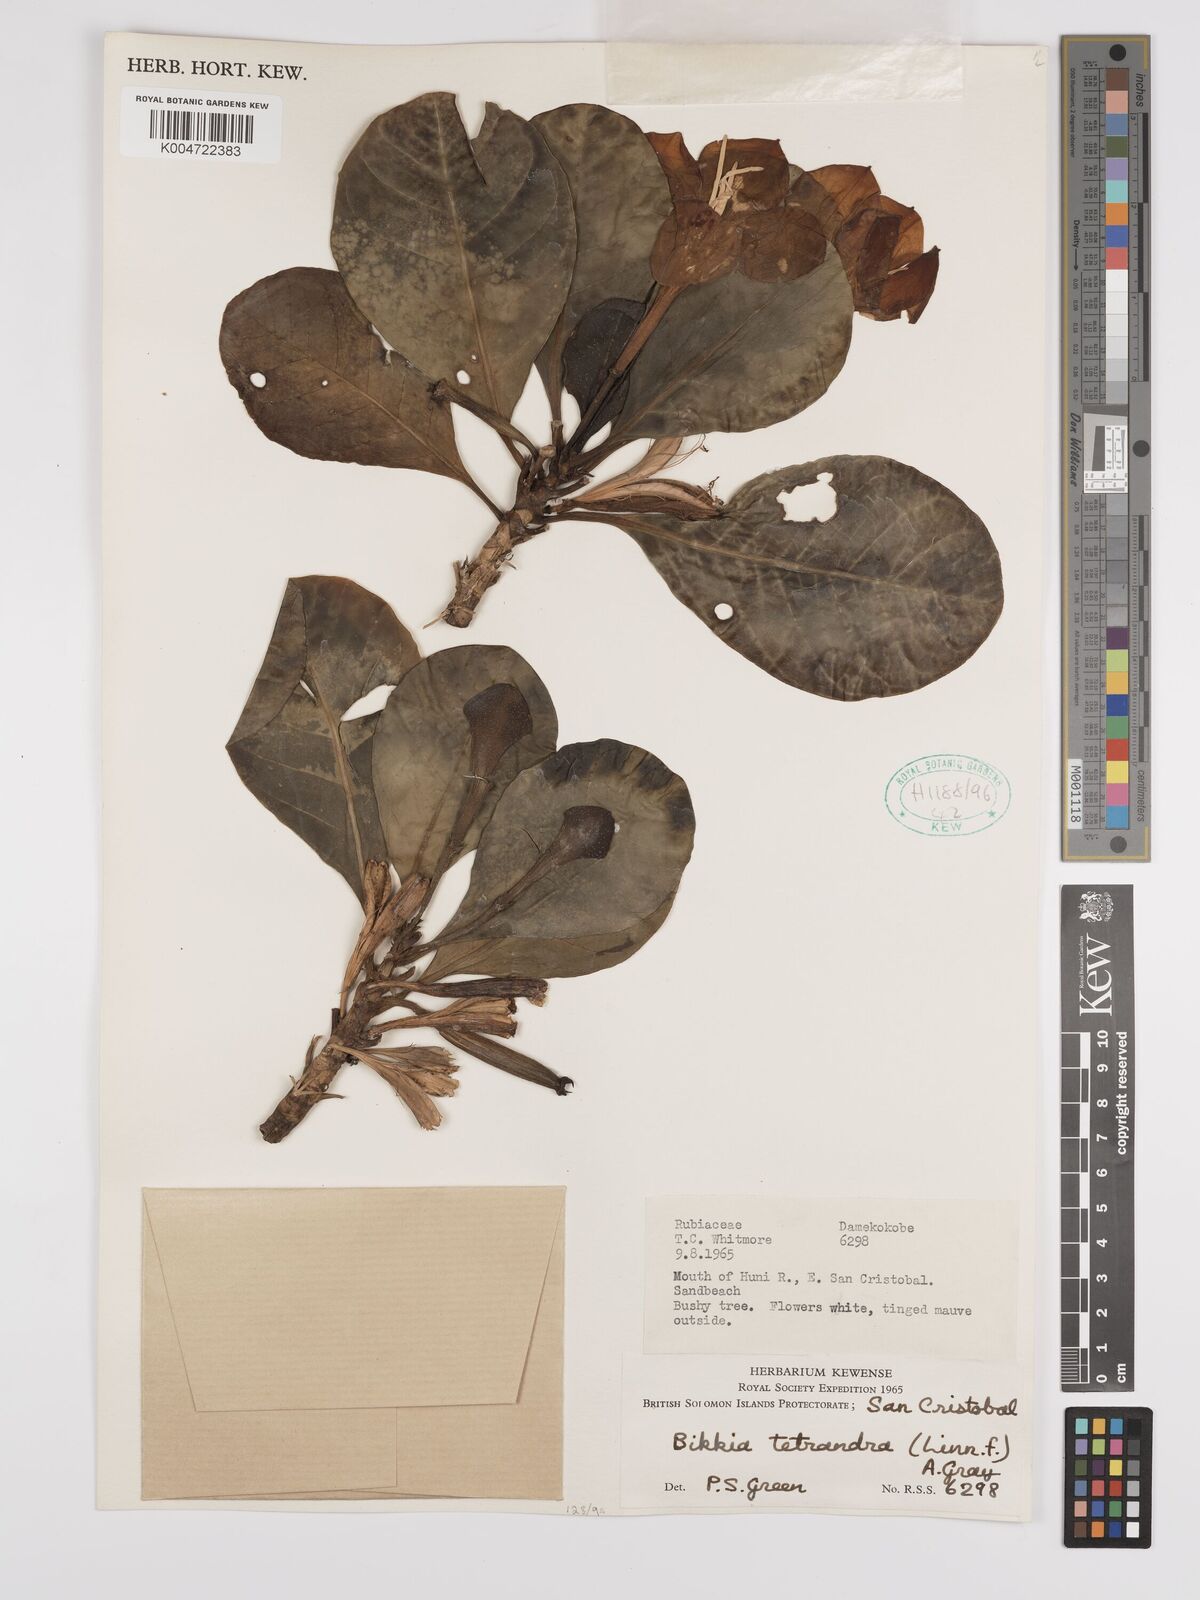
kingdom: Plantae
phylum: Tracheophyta
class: Magnoliopsida
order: Gentianales
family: Rubiaceae
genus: Bikkia
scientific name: Bikkia
